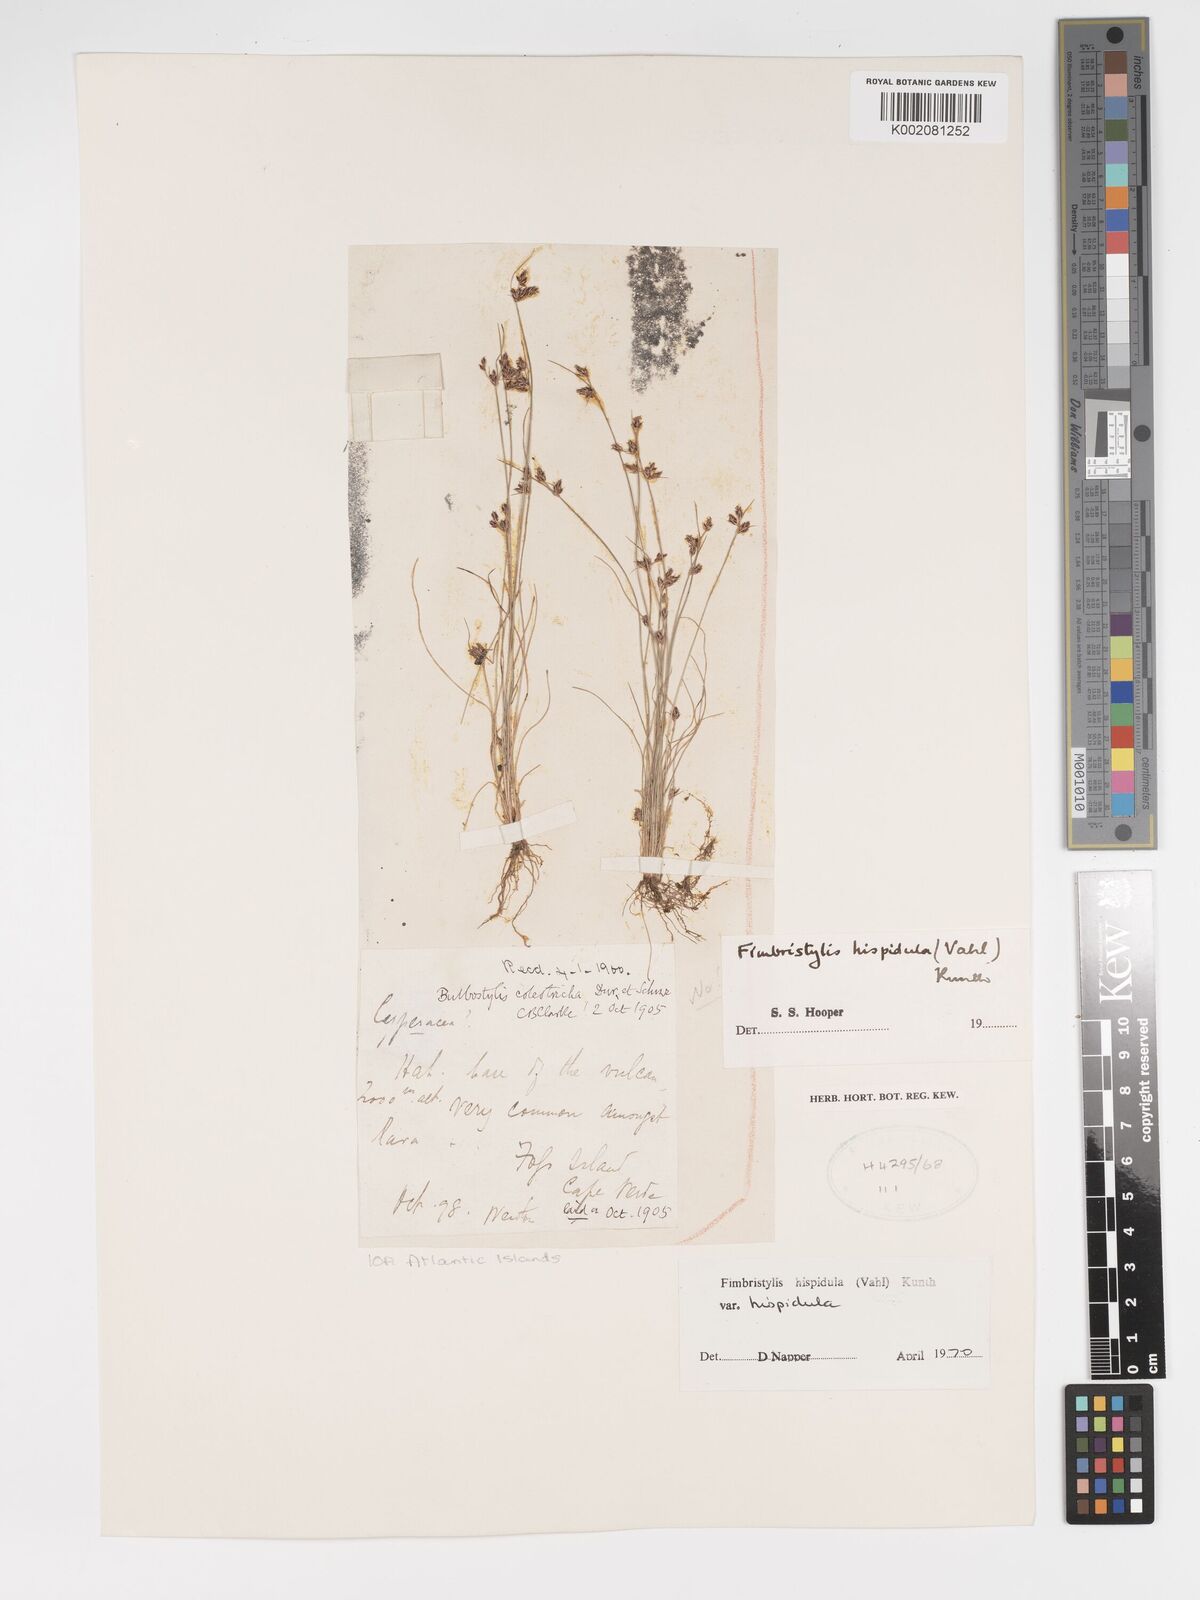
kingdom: Plantae
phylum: Tracheophyta
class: Liliopsida
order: Poales
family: Cyperaceae
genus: Bulbostylis
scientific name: Bulbostylis hispidula
